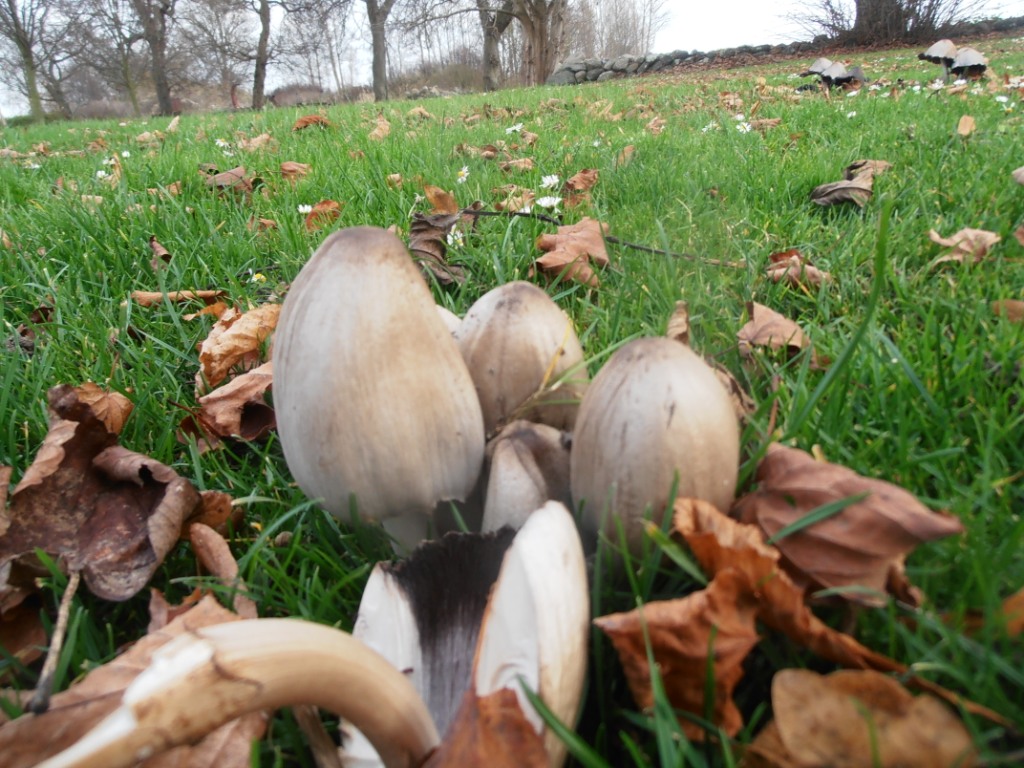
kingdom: Fungi
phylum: Basidiomycota
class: Agaricomycetes
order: Agaricales
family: Psathyrellaceae
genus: Coprinopsis
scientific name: Coprinopsis atramentaria
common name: almindelig blækhat
